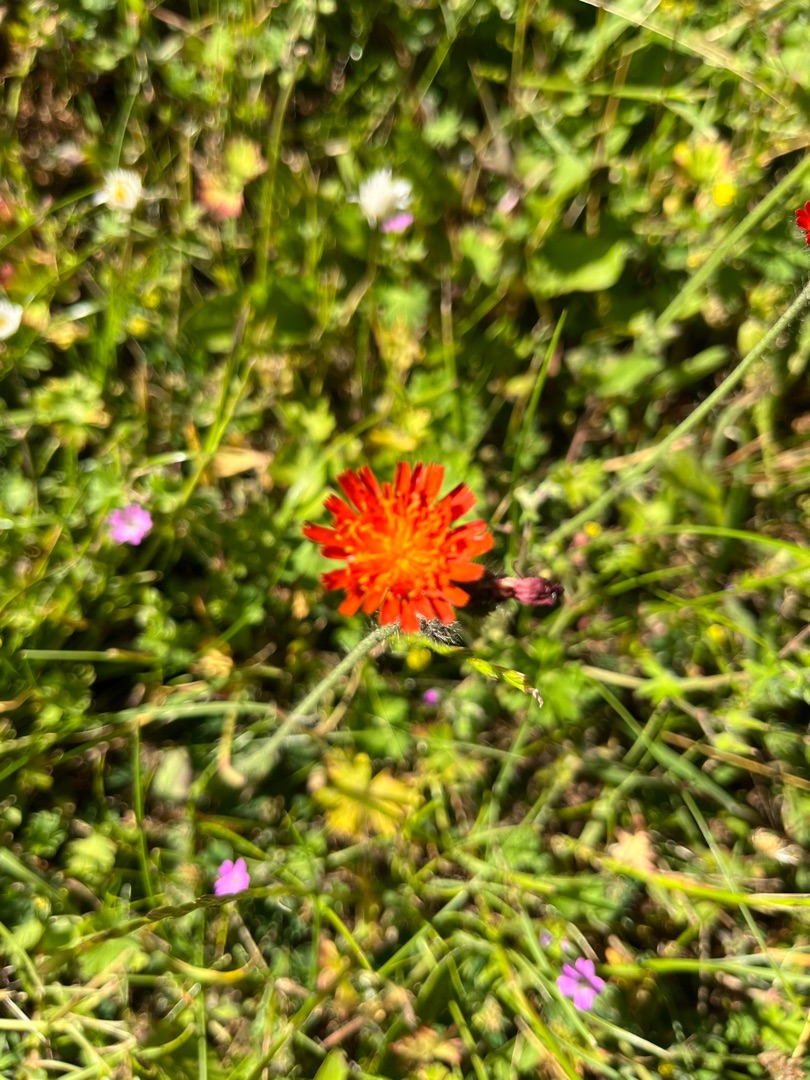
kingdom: Plantae
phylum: Tracheophyta
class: Magnoliopsida
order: Asterales
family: Asteraceae
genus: Pilosella
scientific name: Pilosella aurantiaca
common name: Pomerans-høgeurt
